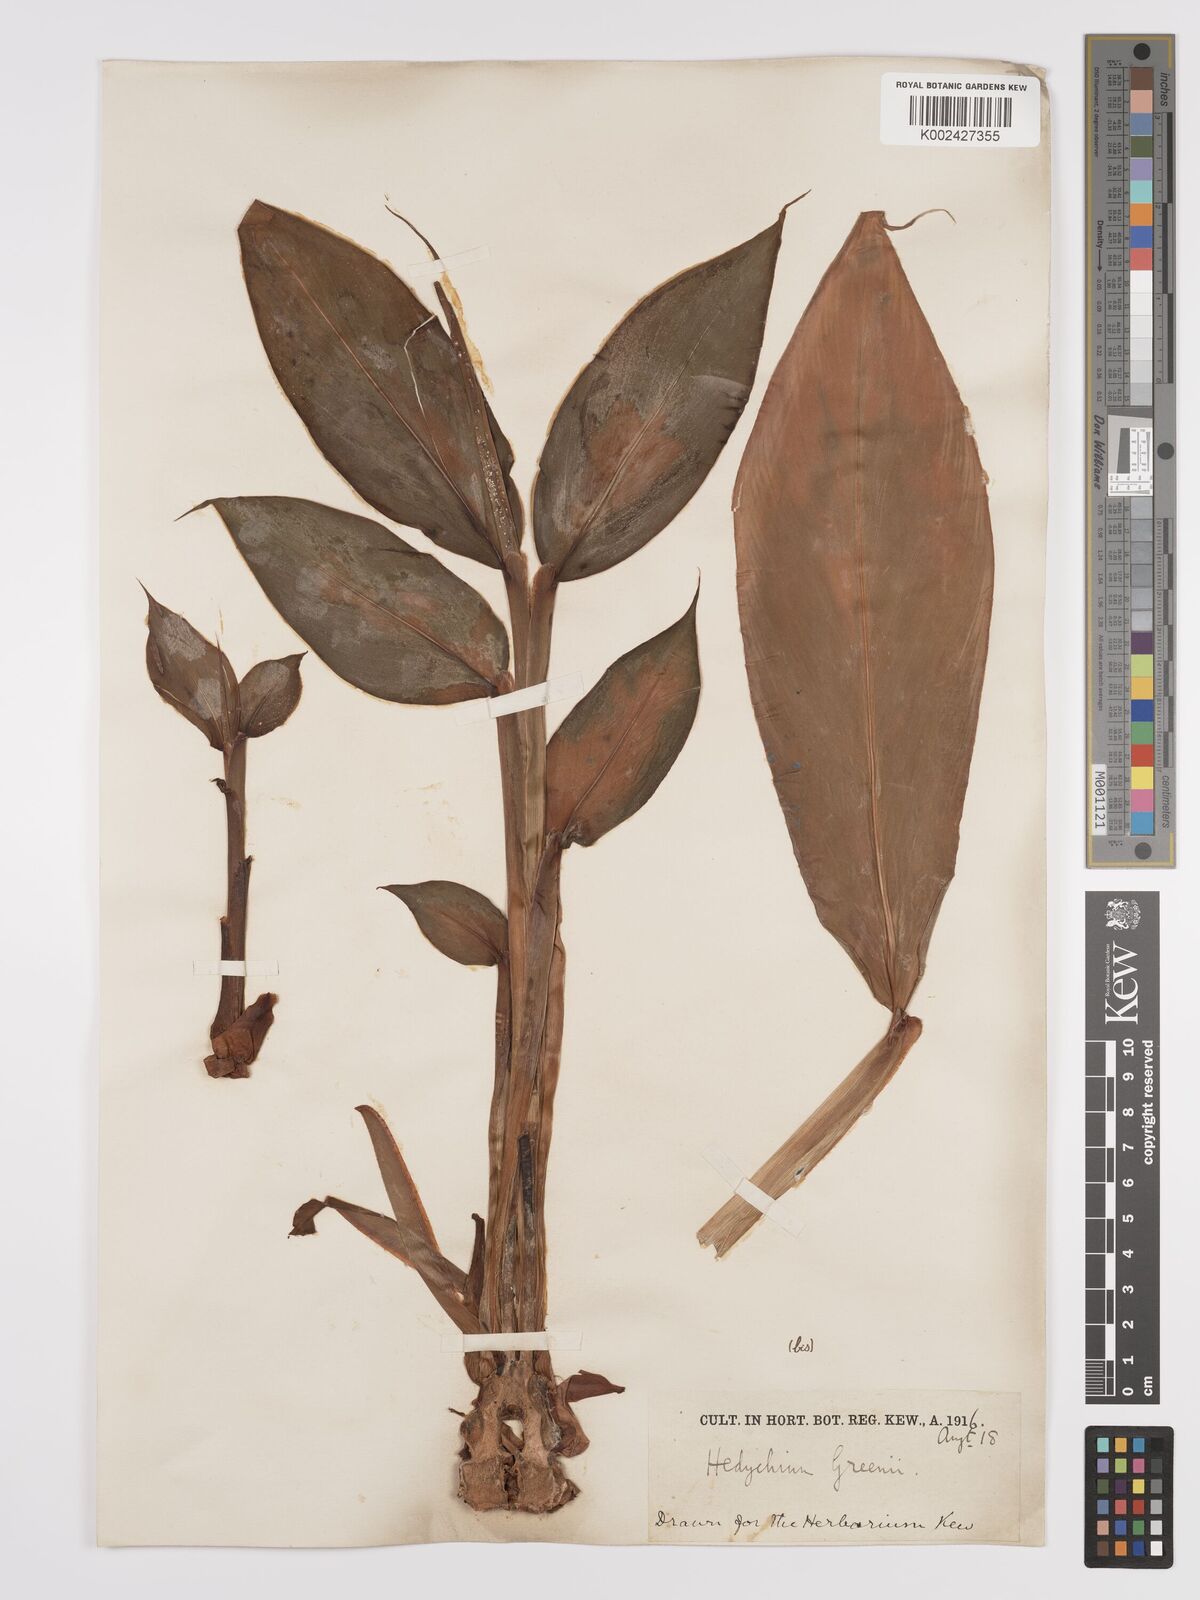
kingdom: Plantae
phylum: Tracheophyta
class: Liliopsida
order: Zingiberales
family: Zingiberaceae
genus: Hedychium
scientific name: Hedychium greenii
